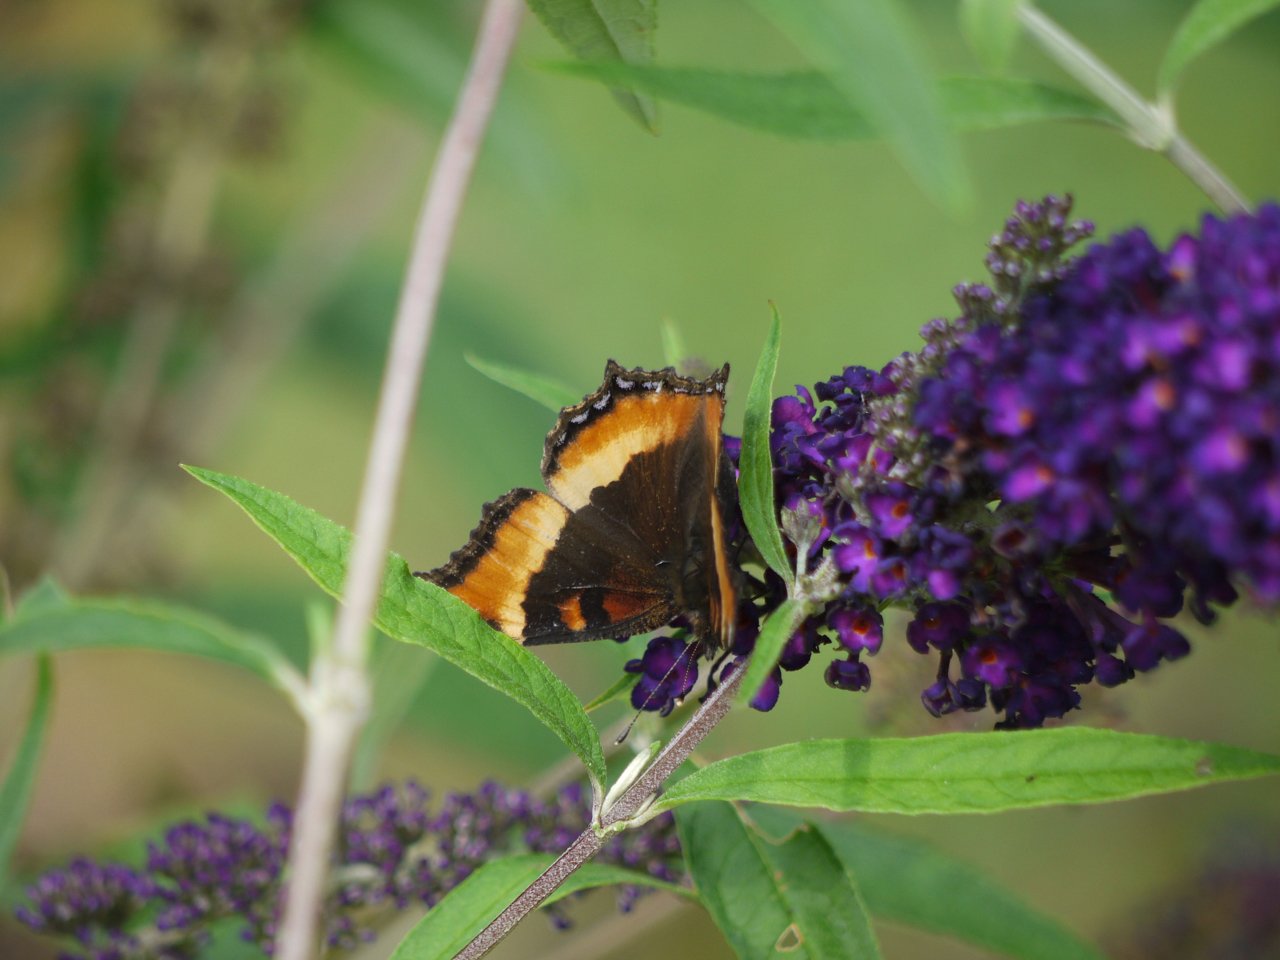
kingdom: Animalia
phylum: Arthropoda
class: Insecta
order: Lepidoptera
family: Nymphalidae
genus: Aglais
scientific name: Aglais milberti
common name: Milbert's Tortoiseshell
